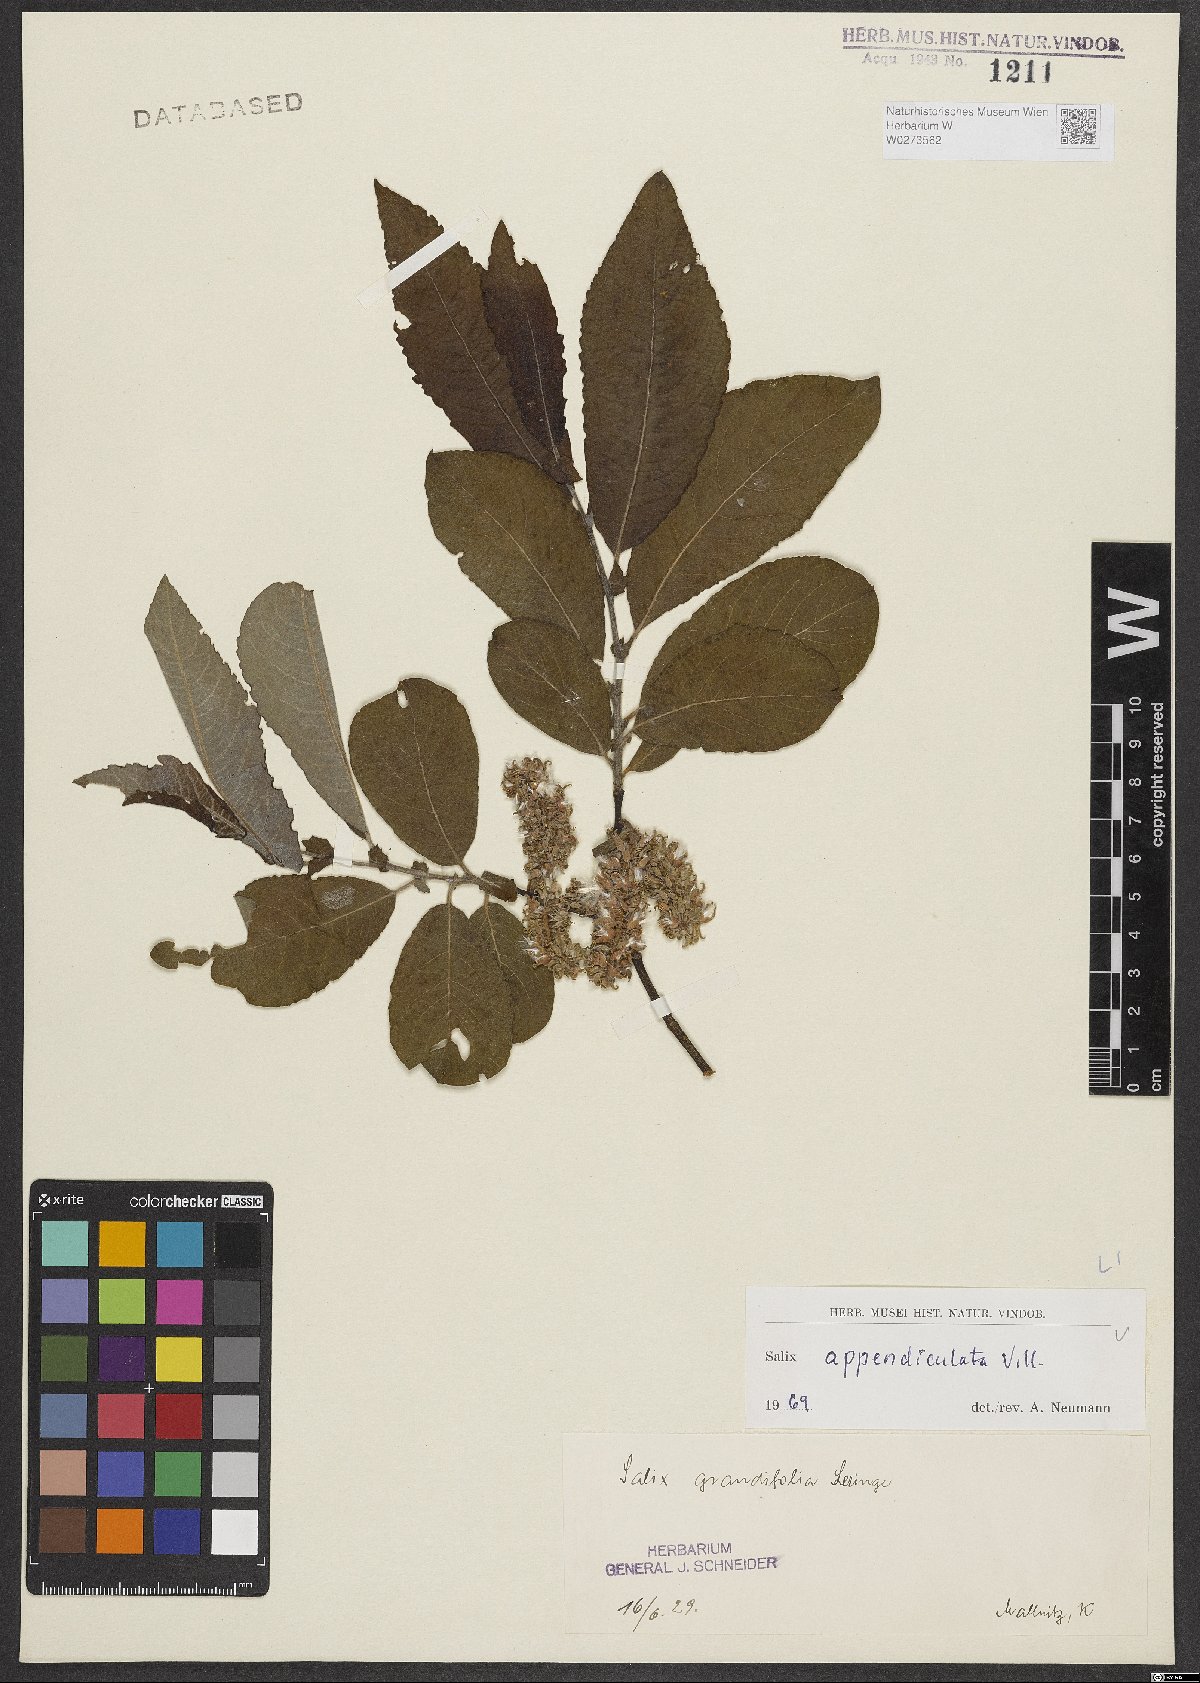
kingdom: Plantae
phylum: Tracheophyta
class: Magnoliopsida
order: Malpighiales
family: Salicaceae
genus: Salix
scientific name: Salix appendiculata
